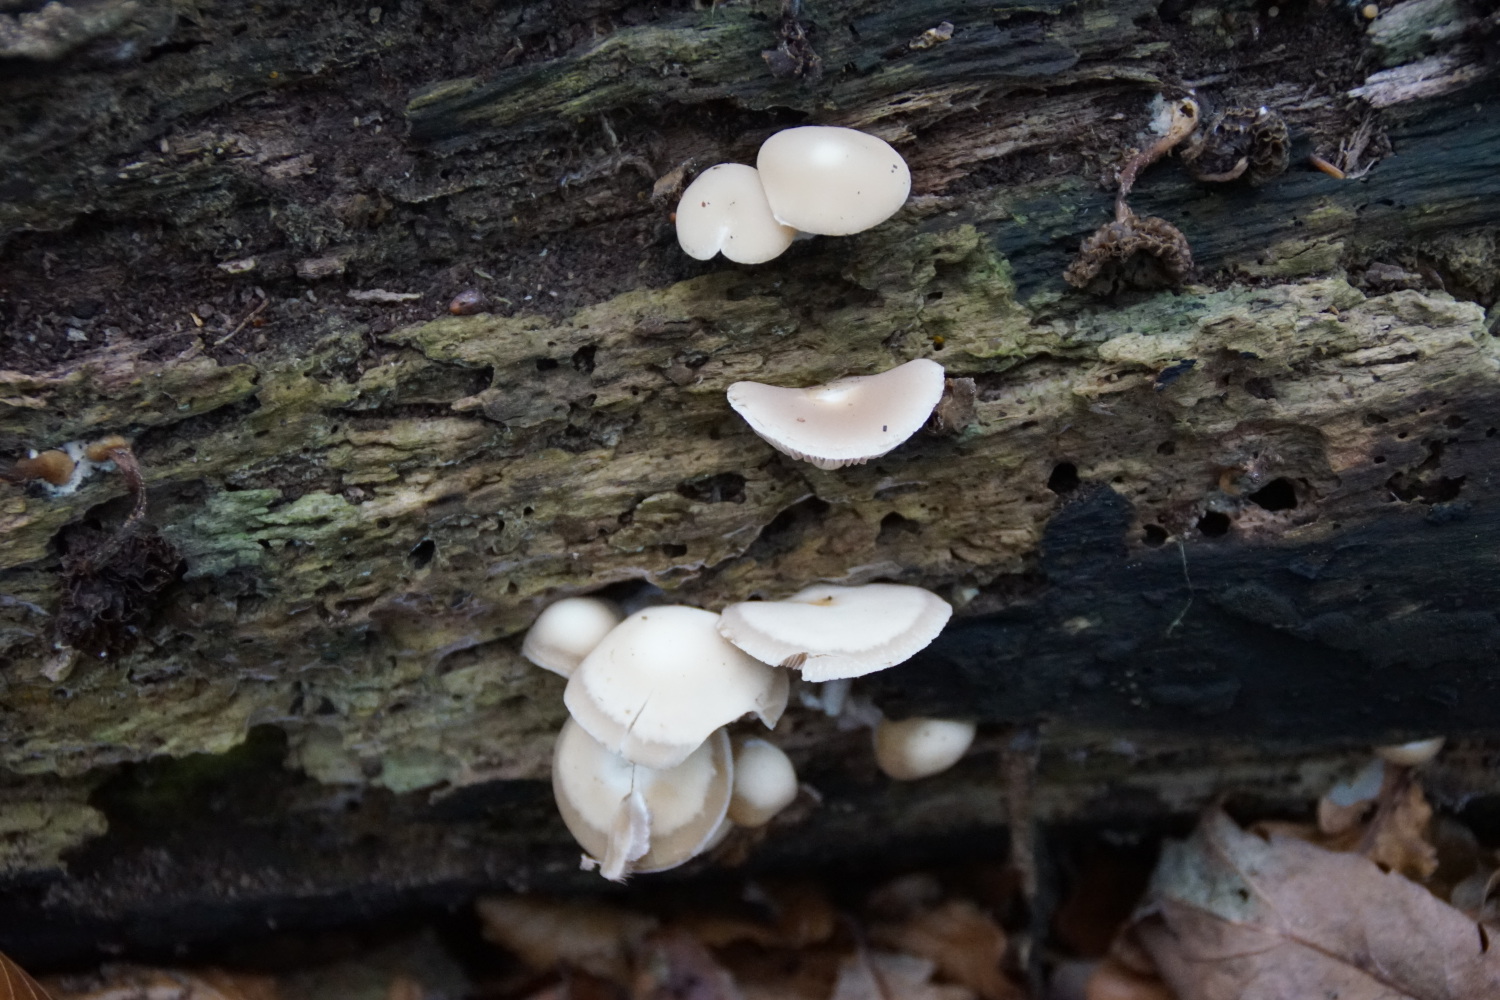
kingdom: Fungi
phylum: Basidiomycota
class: Agaricomycetes
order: Agaricales
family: Psathyrellaceae
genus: Homophron
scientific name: Homophron cernuum
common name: hvidlig mørkhat
